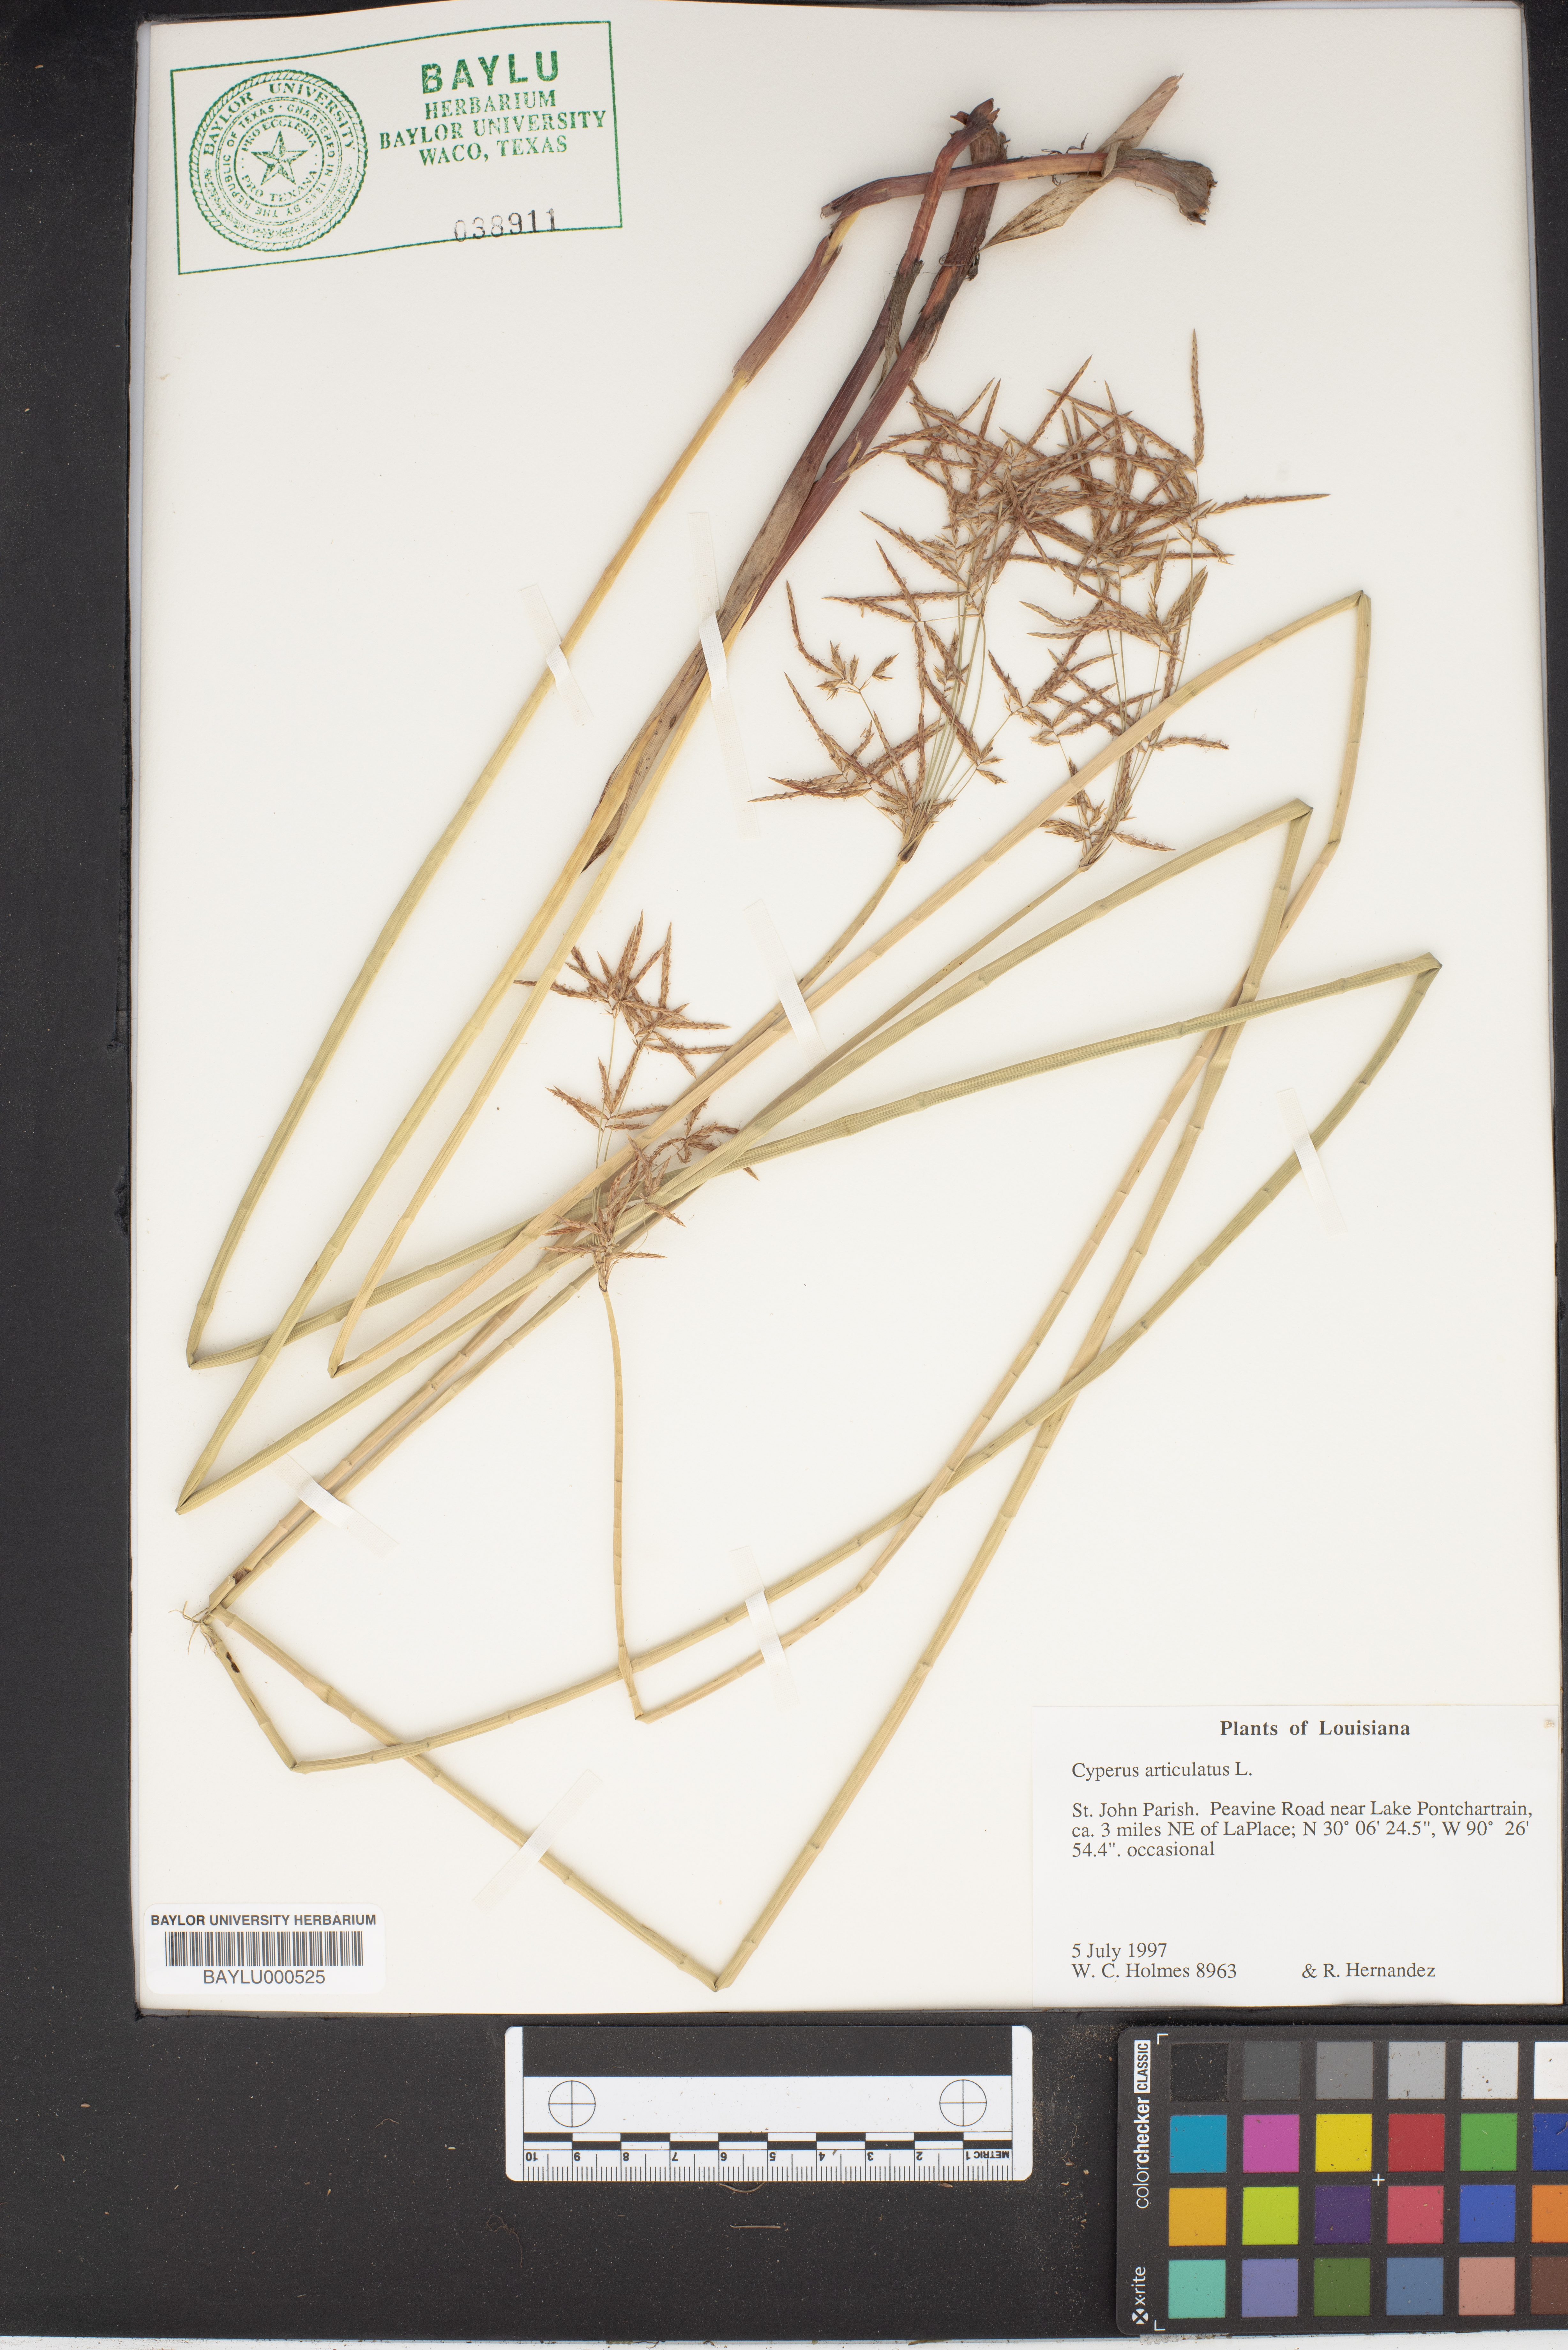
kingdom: Plantae
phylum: Tracheophyta
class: Liliopsida
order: Poales
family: Cyperaceae
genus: Cyperus
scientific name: Cyperus articulatus
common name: Jointed flatsedge
